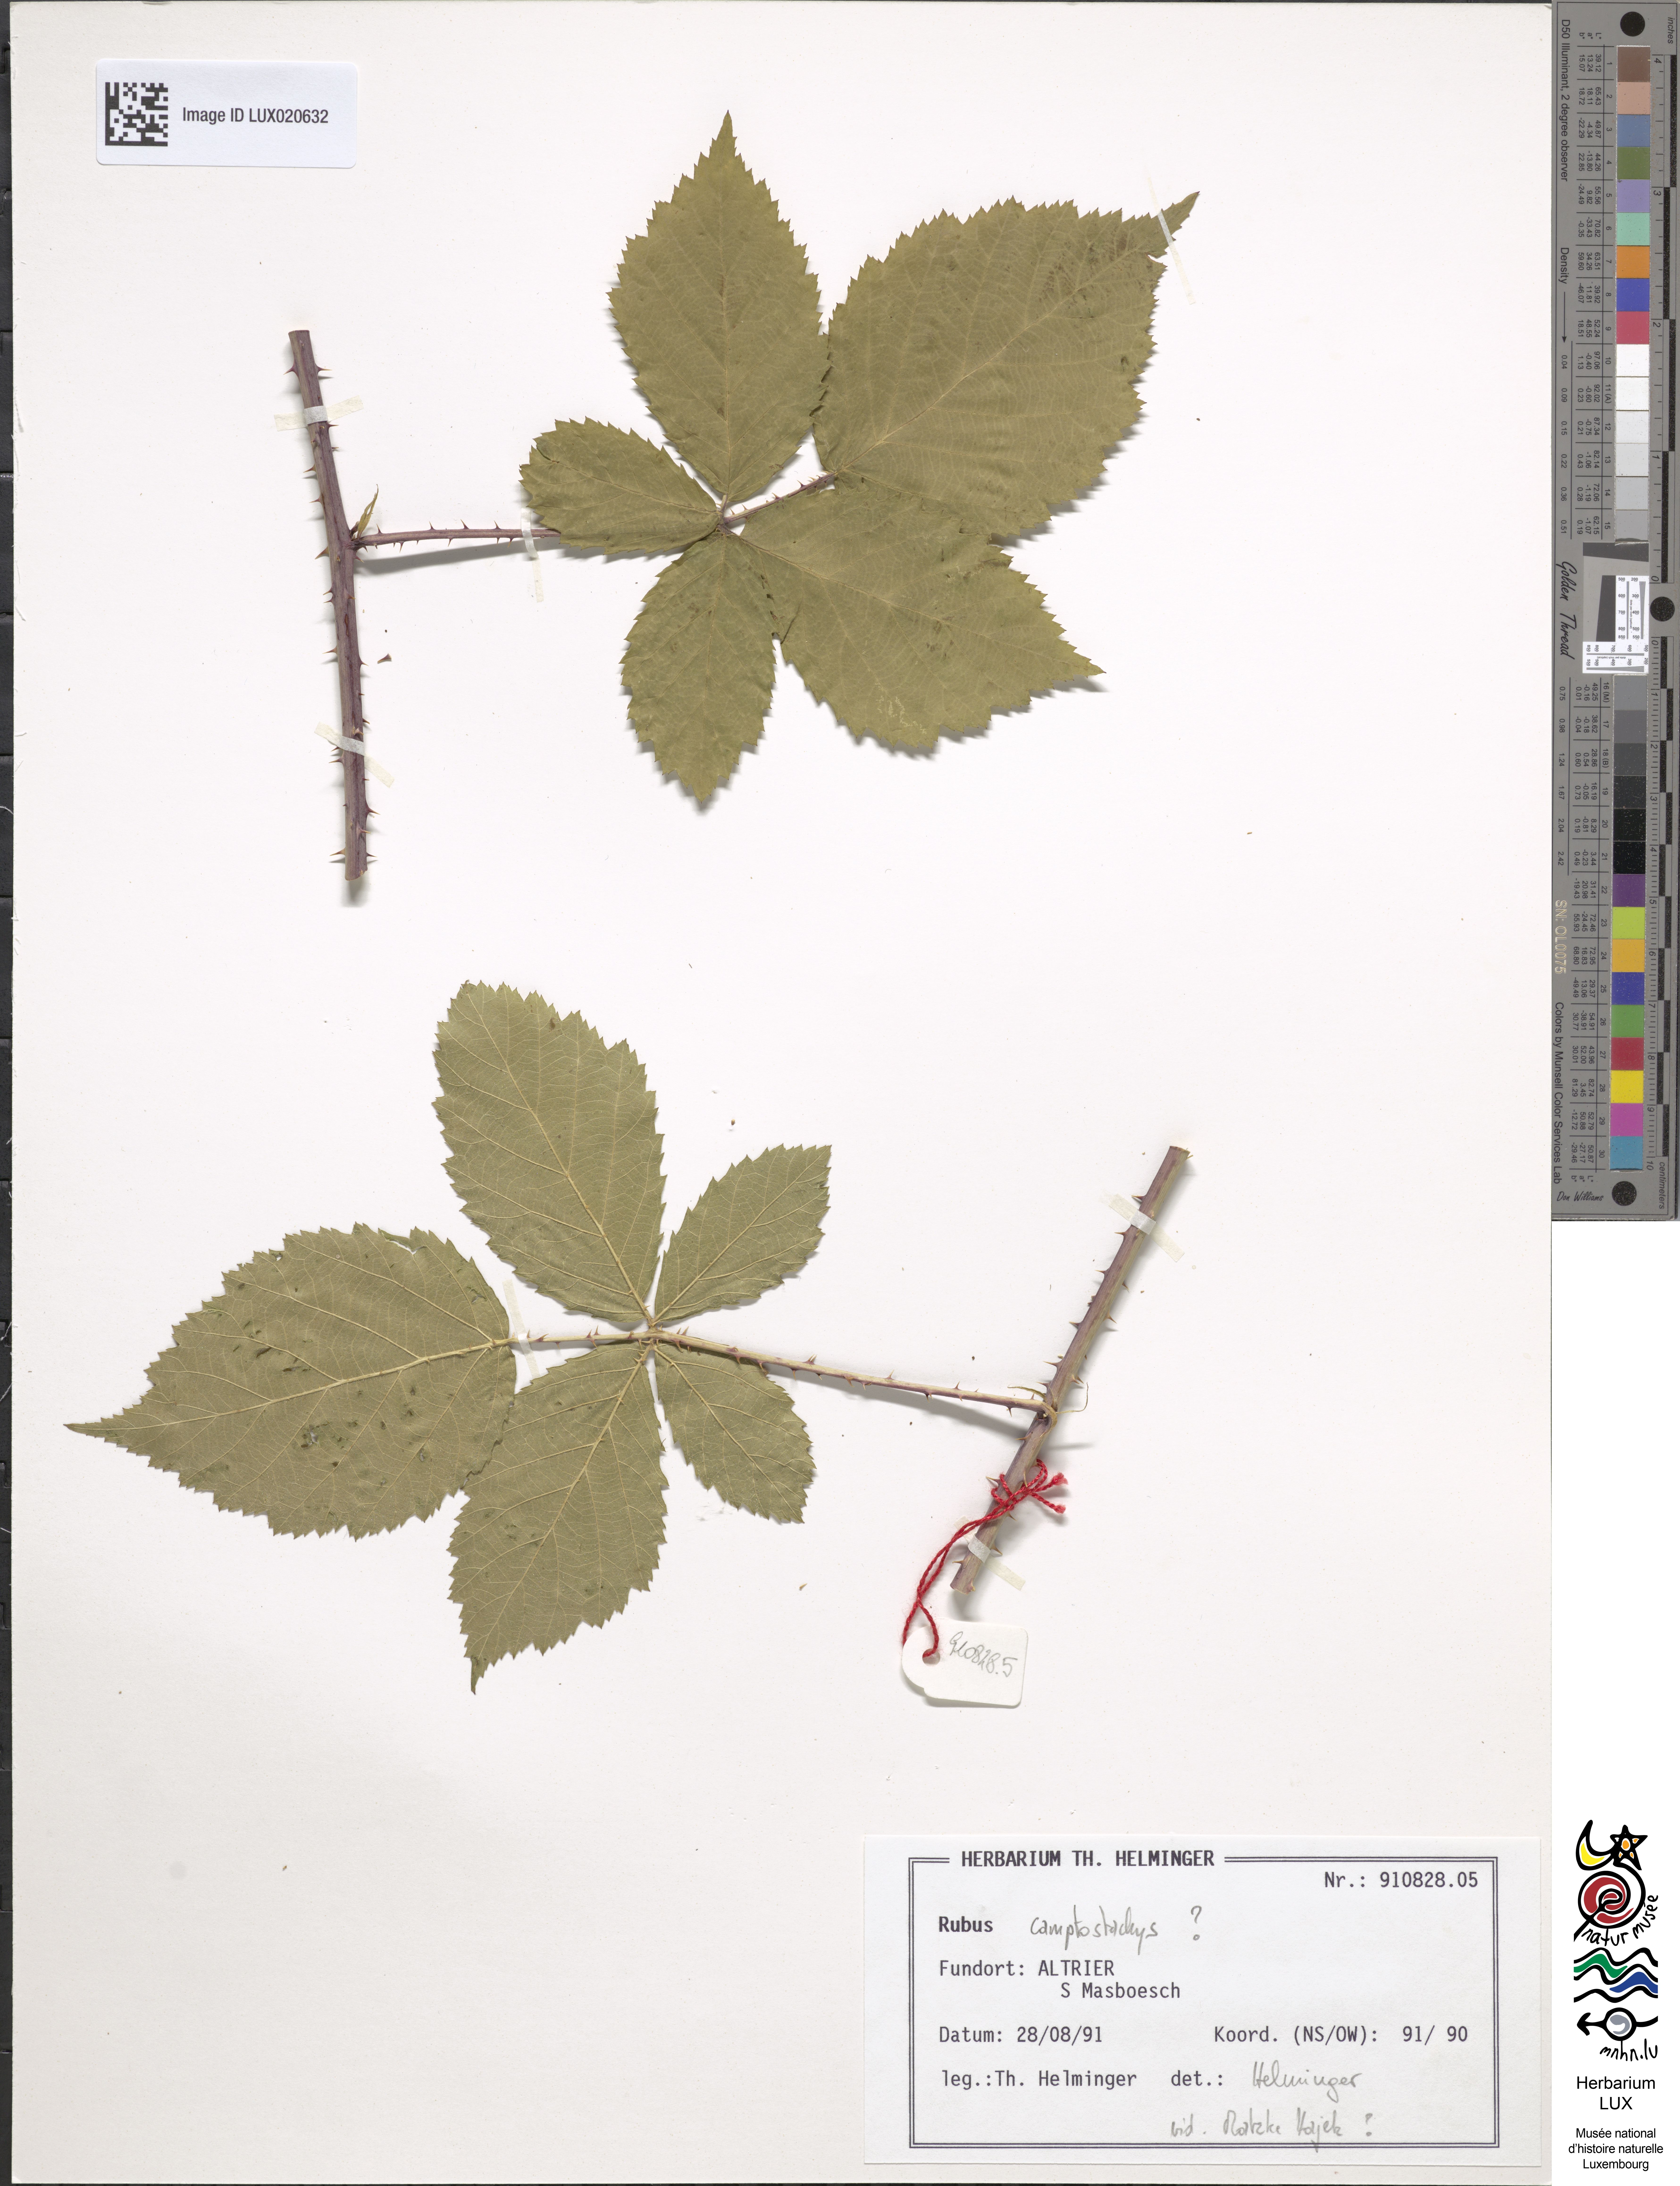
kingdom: Plantae
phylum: Tracheophyta
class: Magnoliopsida
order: Rosales
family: Rosaceae
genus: Rubus
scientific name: Rubus
